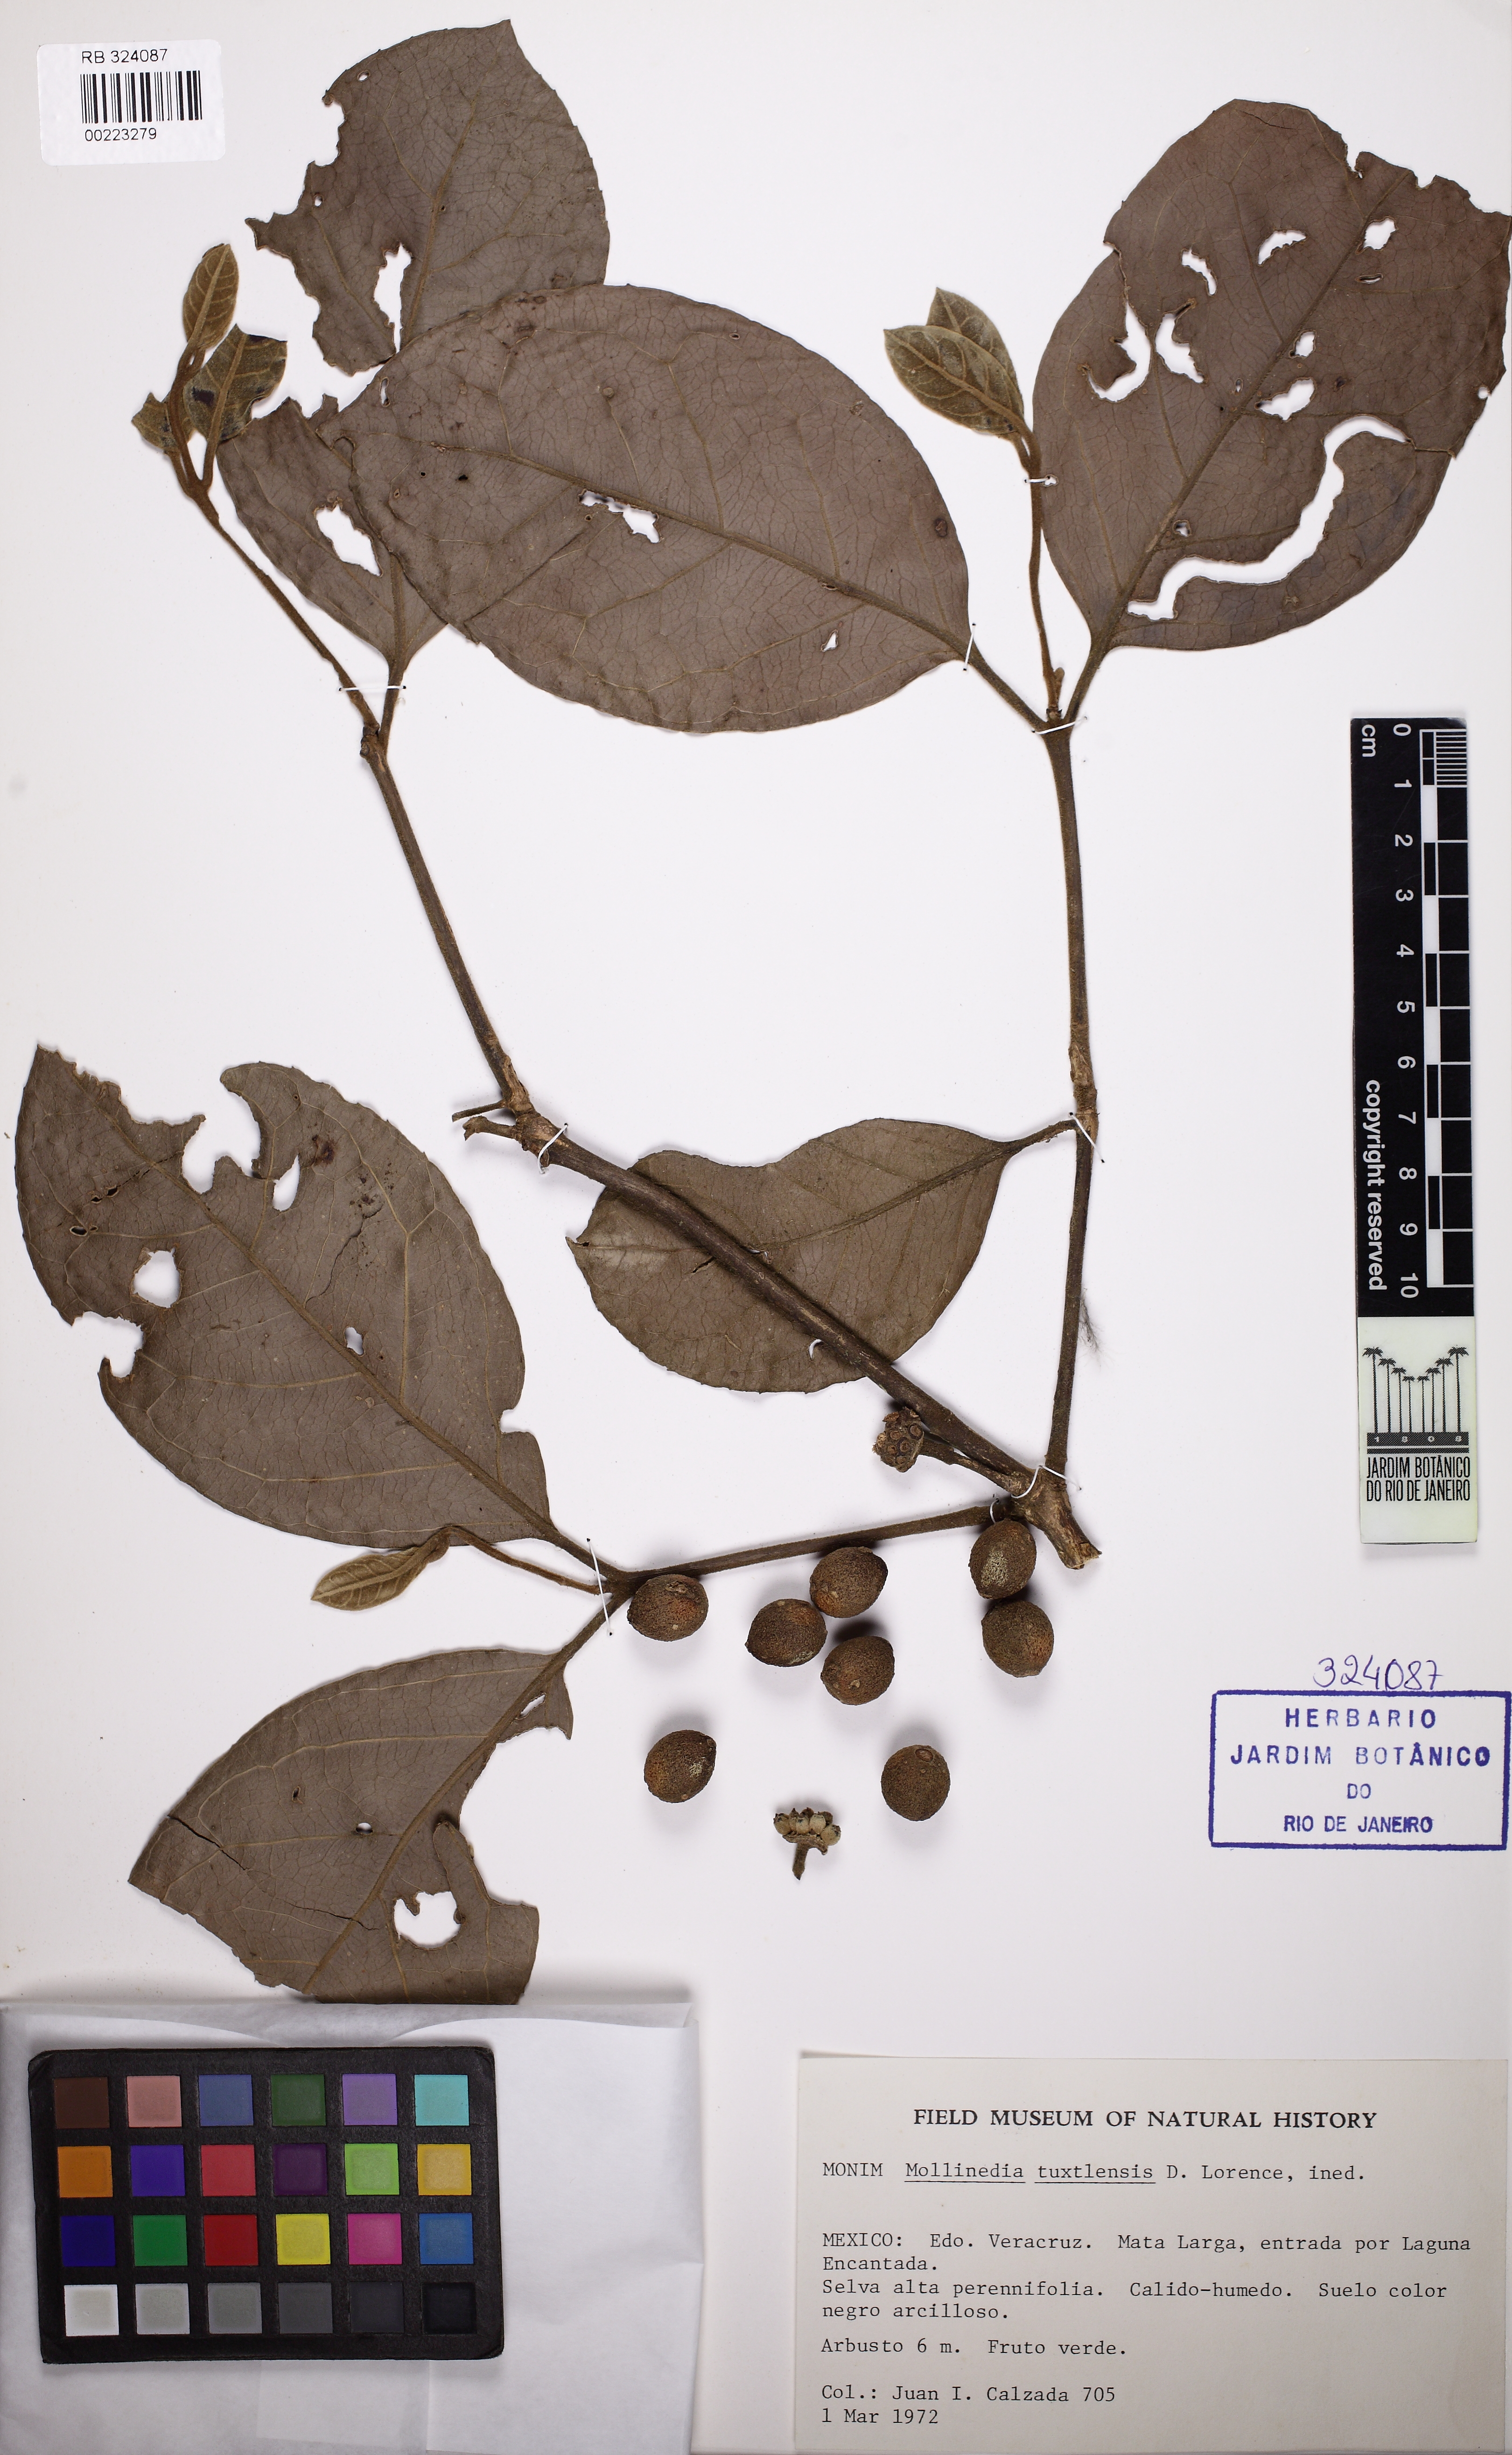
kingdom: Plantae
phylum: Tracheophyta
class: Magnoliopsida
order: Laurales
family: Monimiaceae
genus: Mollinedia
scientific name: Mollinedia butleriana
